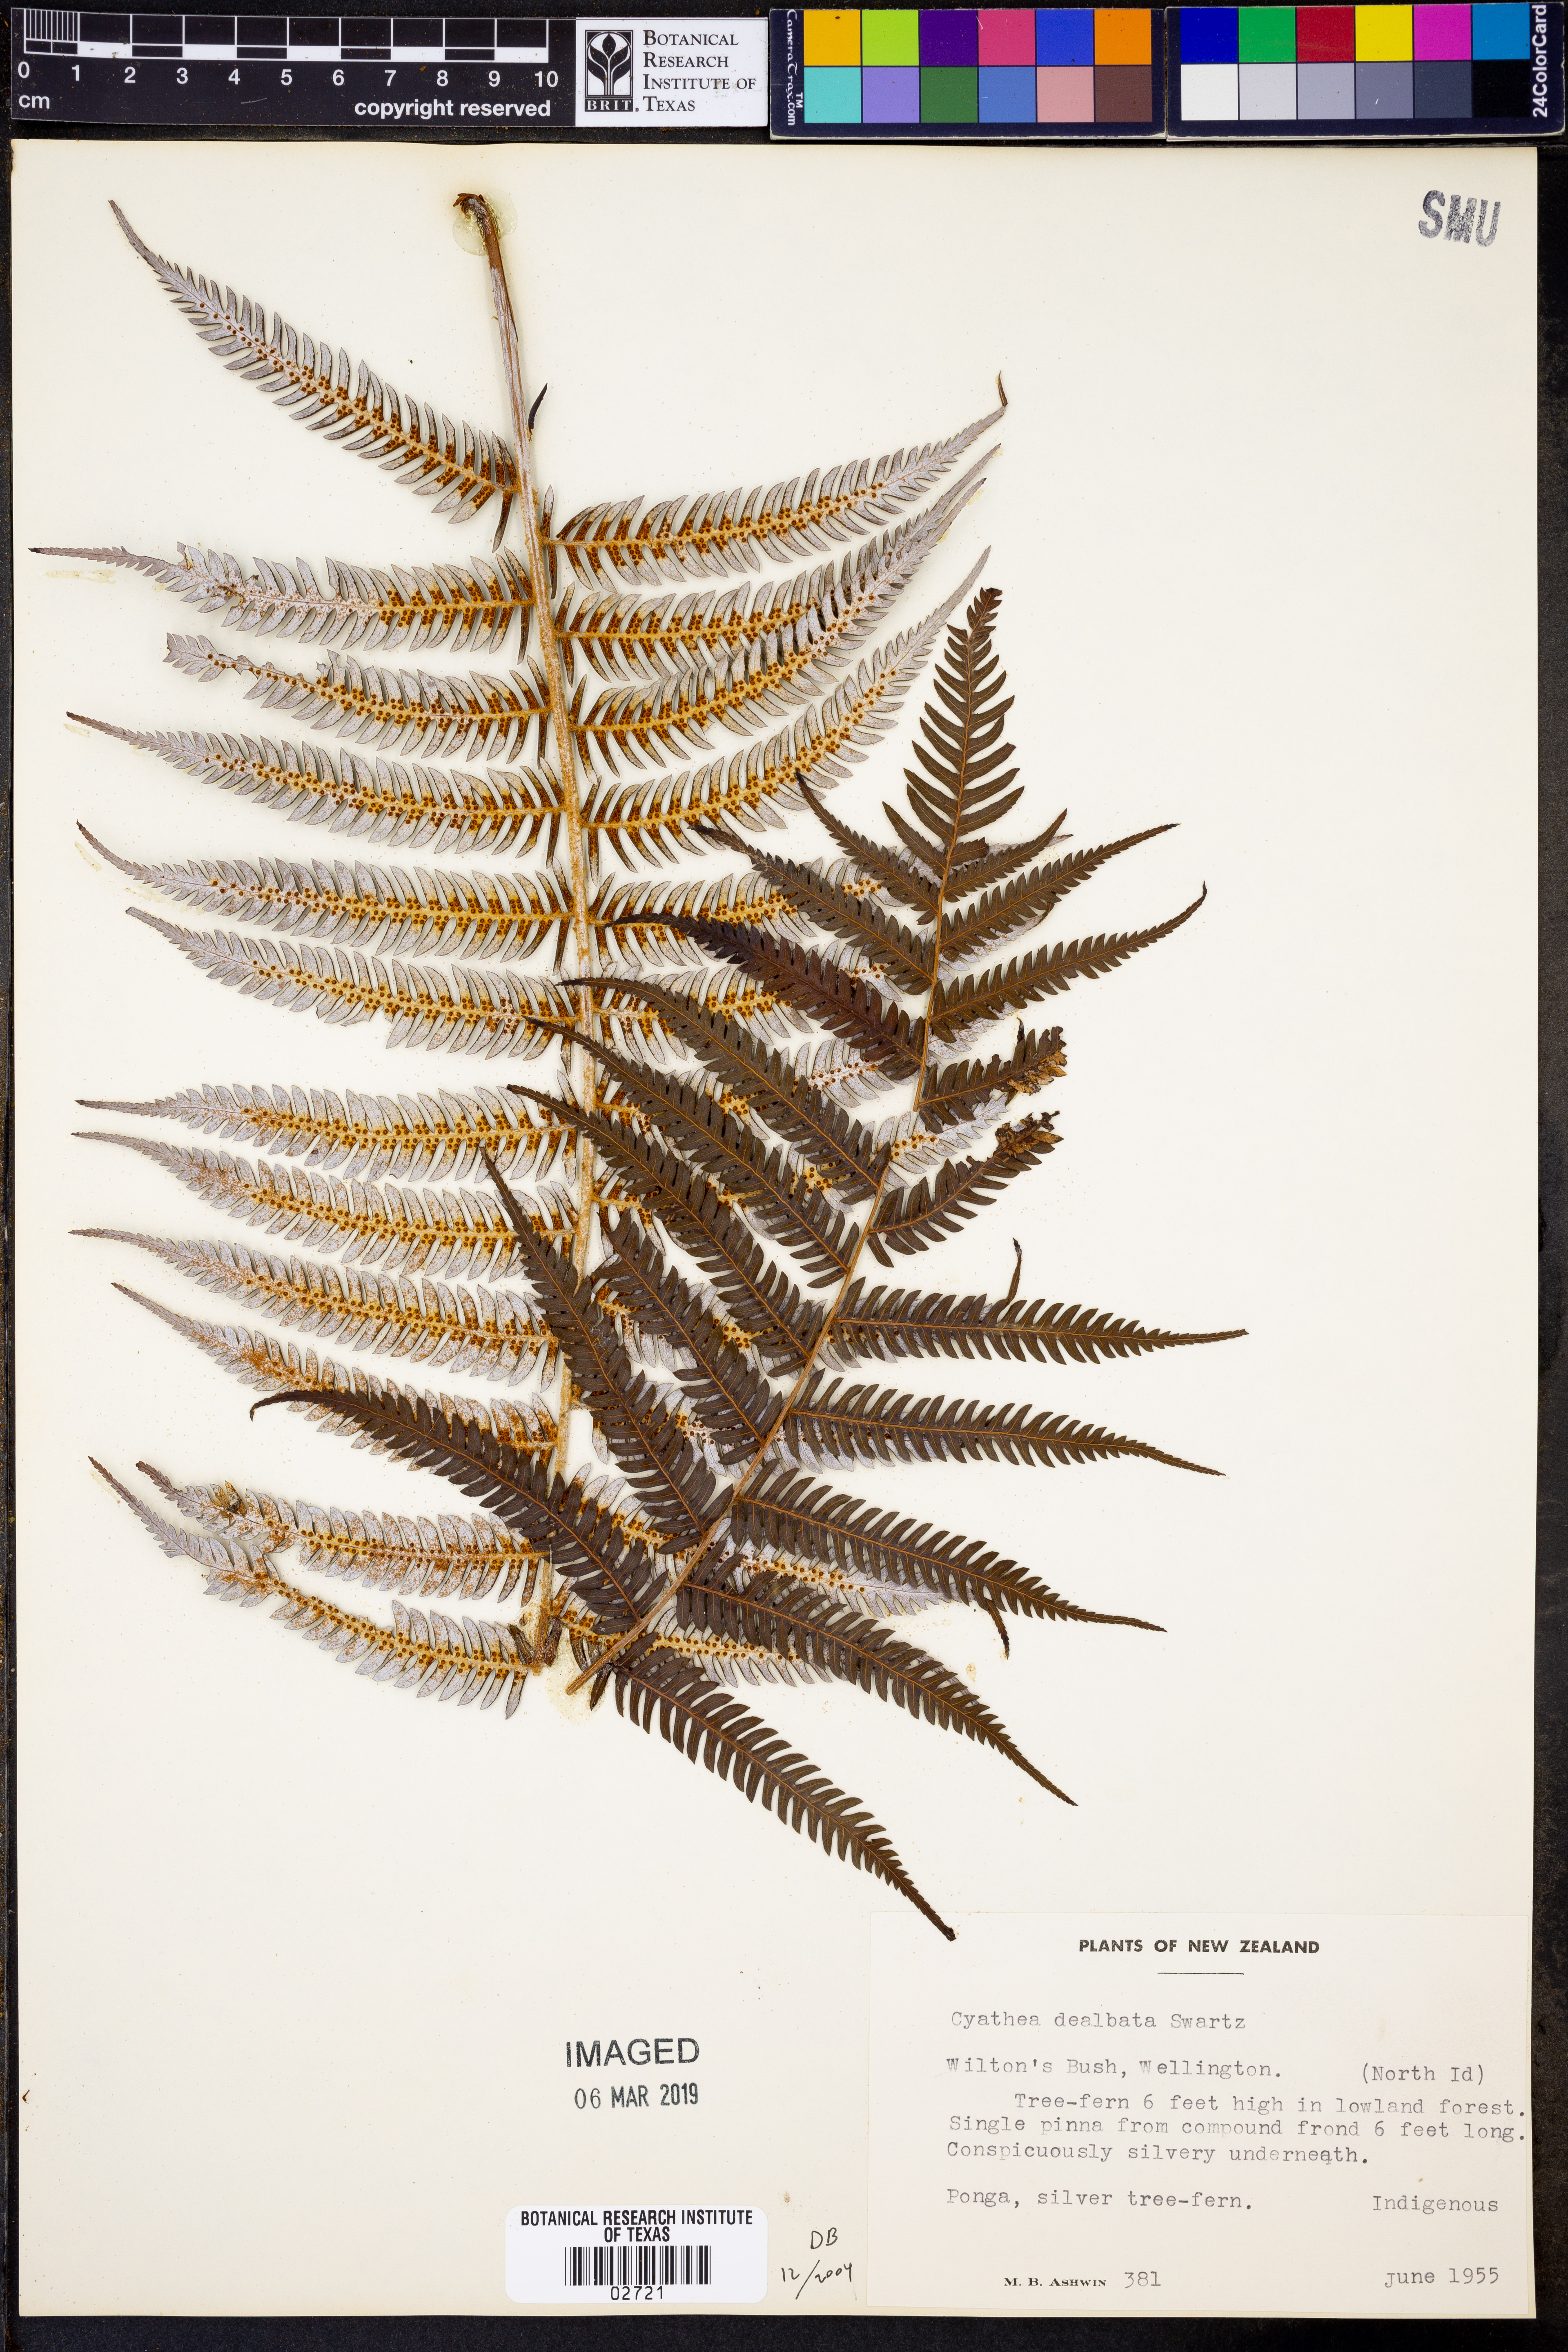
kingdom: Plantae
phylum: Tracheophyta
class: Polypodiopsida
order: Cyatheales
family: Cyatheaceae
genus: Alsophila
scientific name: Alsophila dealbata
